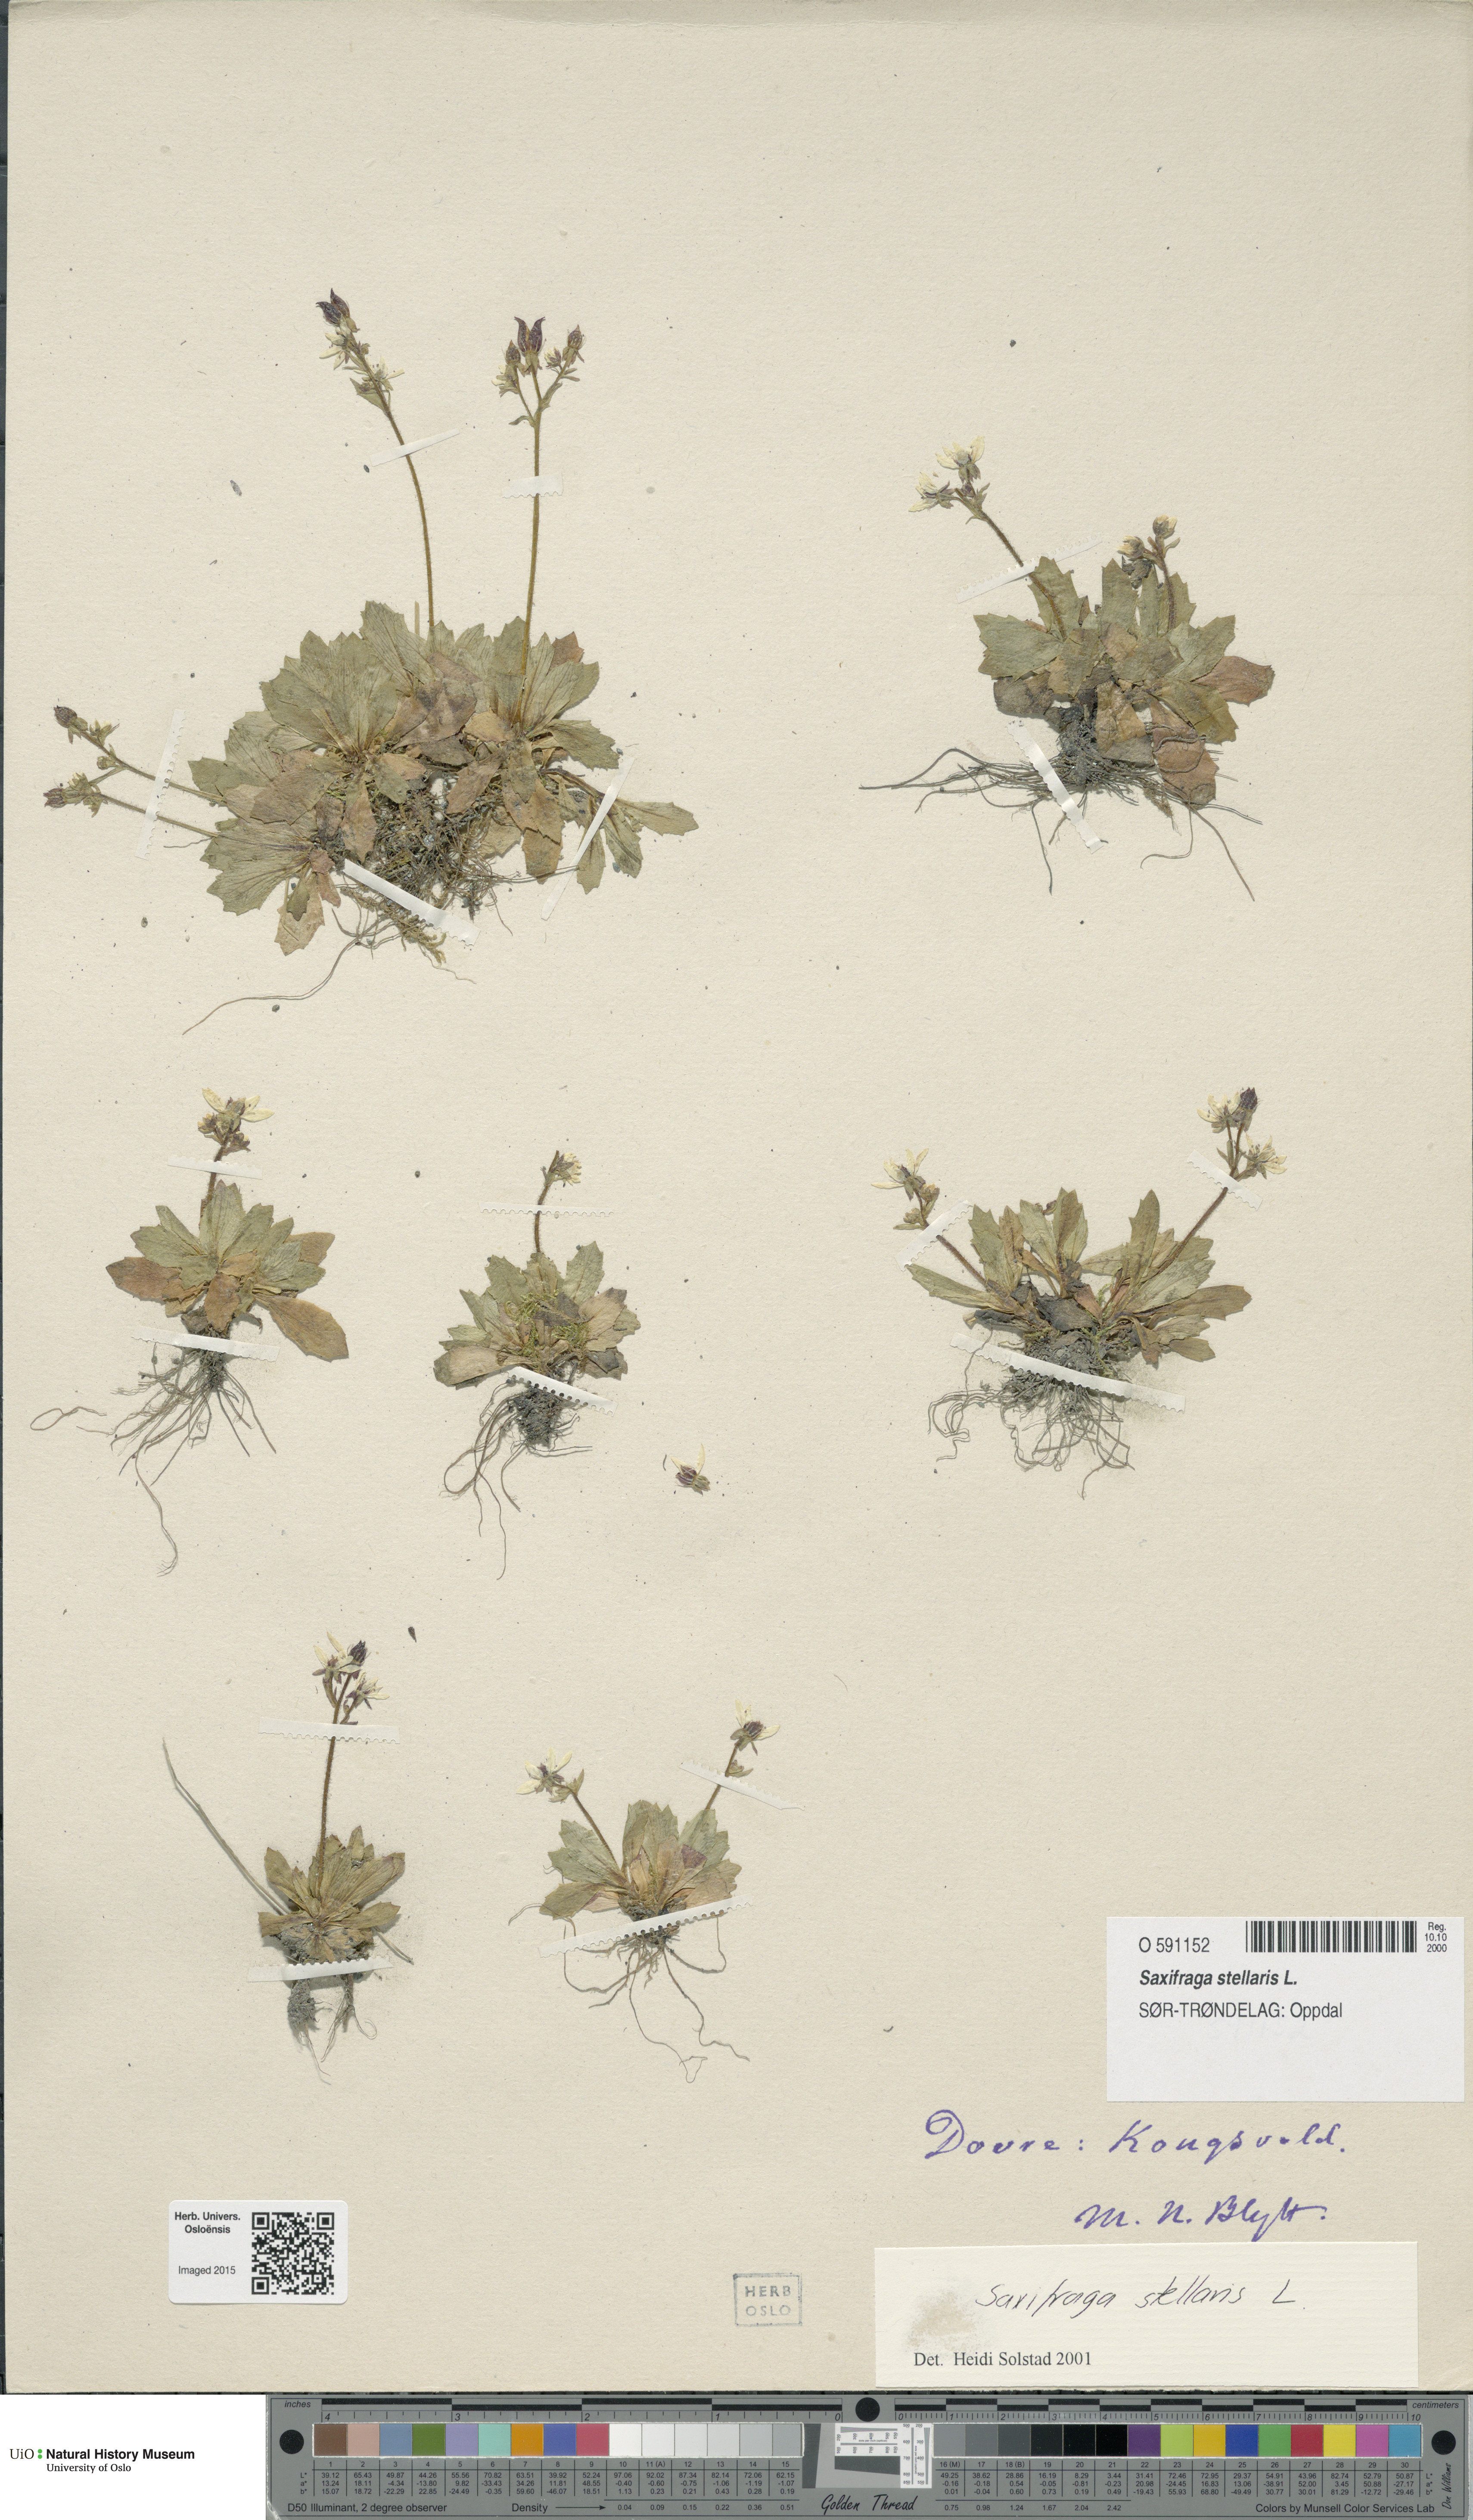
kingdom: Plantae
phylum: Tracheophyta
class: Magnoliopsida
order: Saxifragales
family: Saxifragaceae
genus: Micranthes
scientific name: Micranthes stellaris
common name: Starry saxifrage
